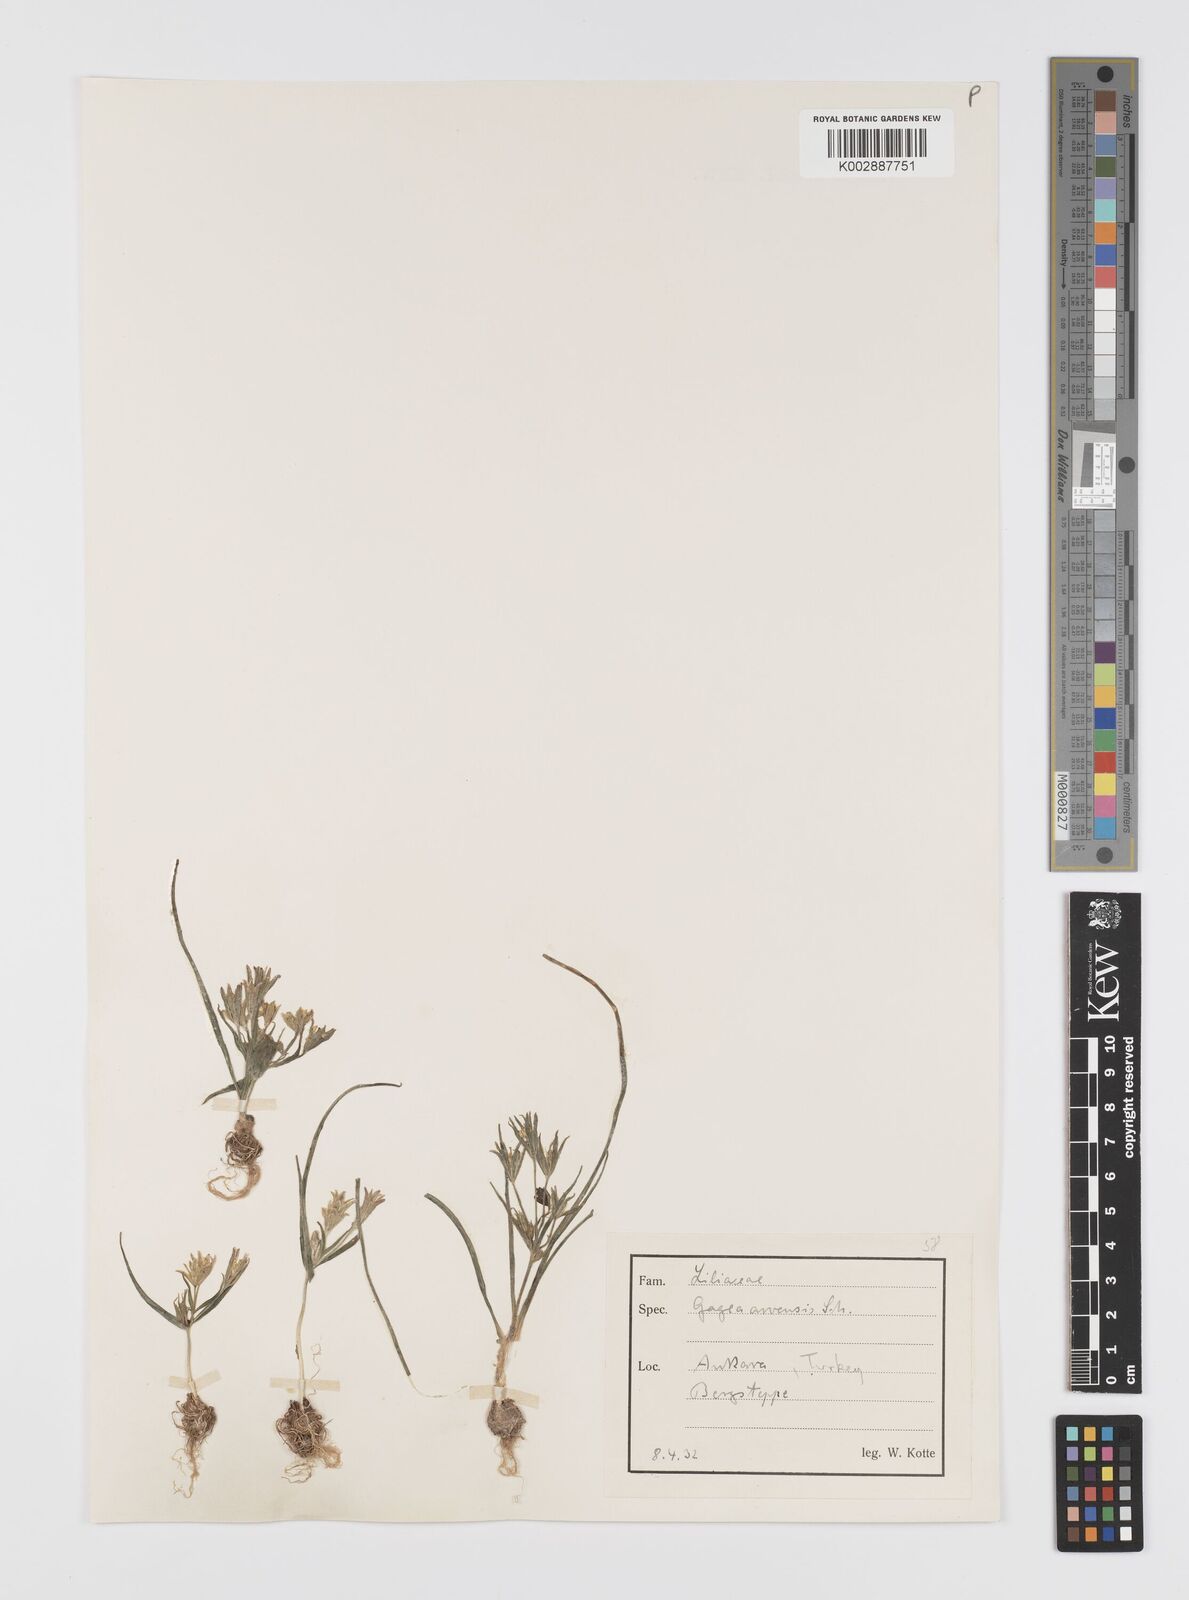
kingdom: Plantae
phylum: Tracheophyta
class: Liliopsida
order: Liliales
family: Liliaceae
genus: Gagea
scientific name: Gagea minima
